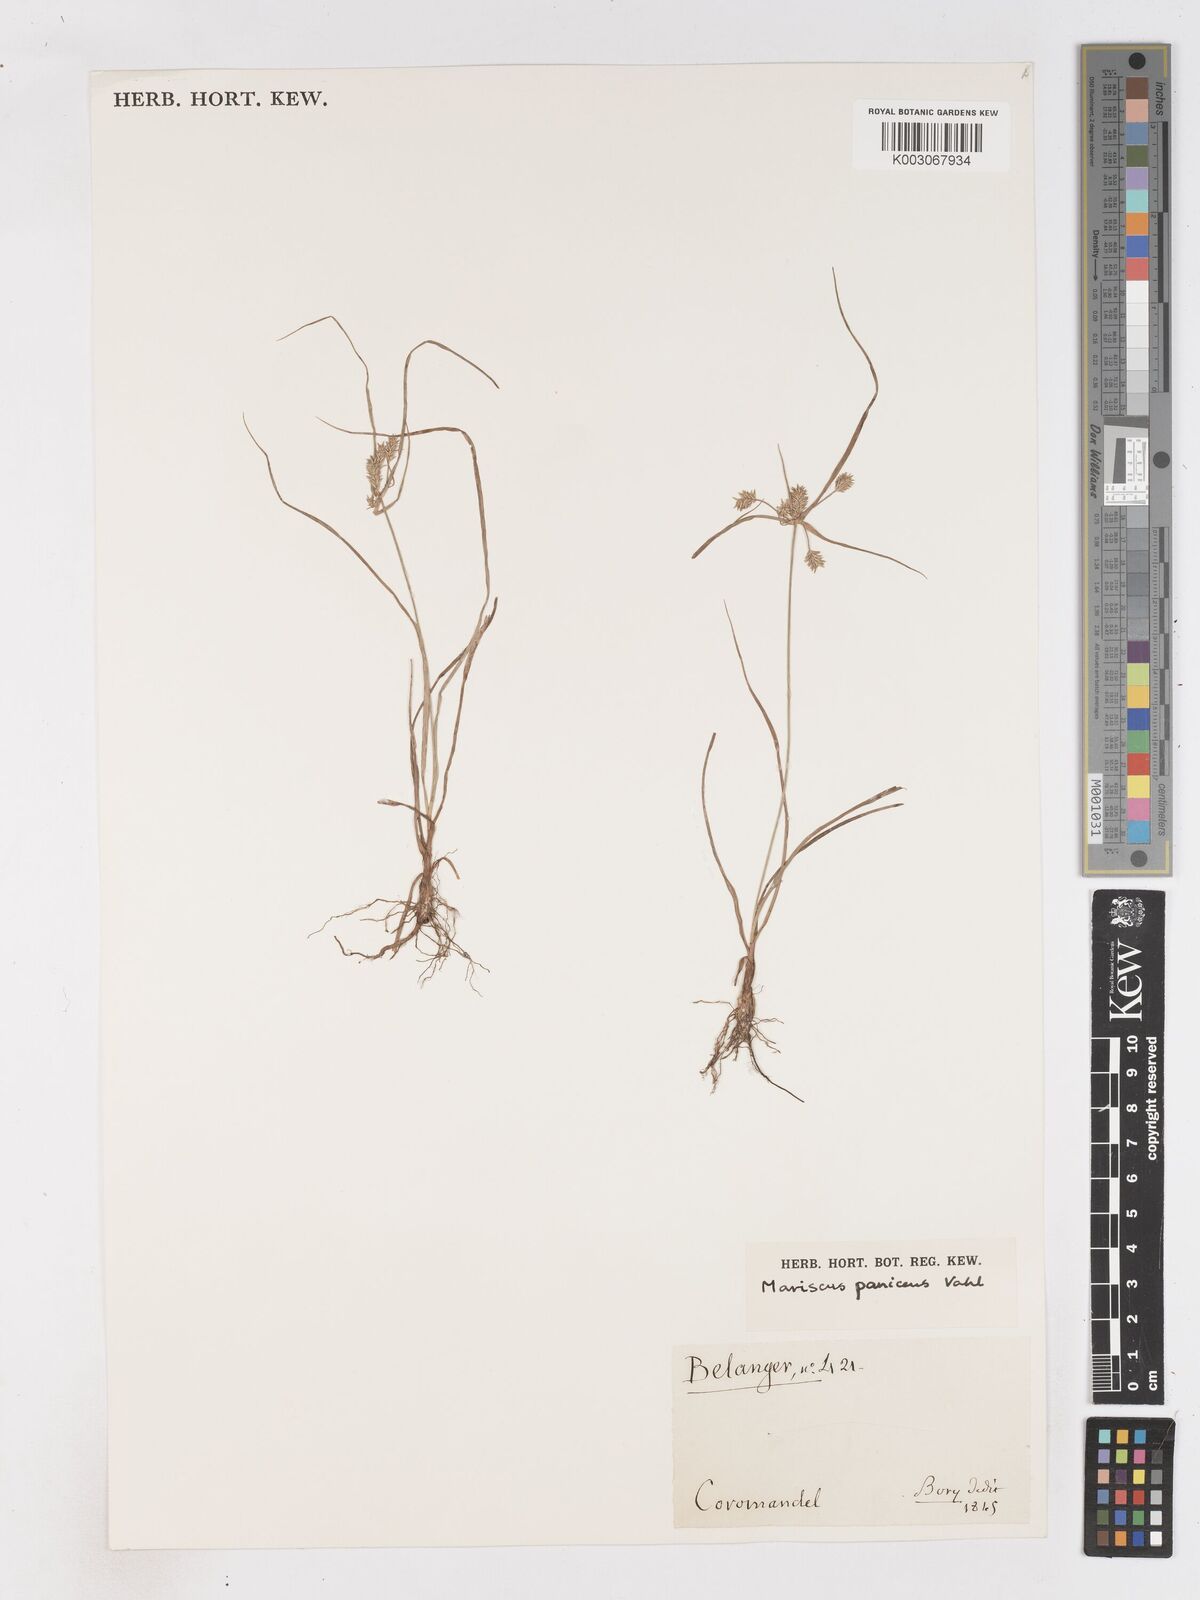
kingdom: Plantae
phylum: Tracheophyta
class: Liliopsida
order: Poales
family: Cyperaceae
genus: Cyperus
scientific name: Cyperus paniceus
